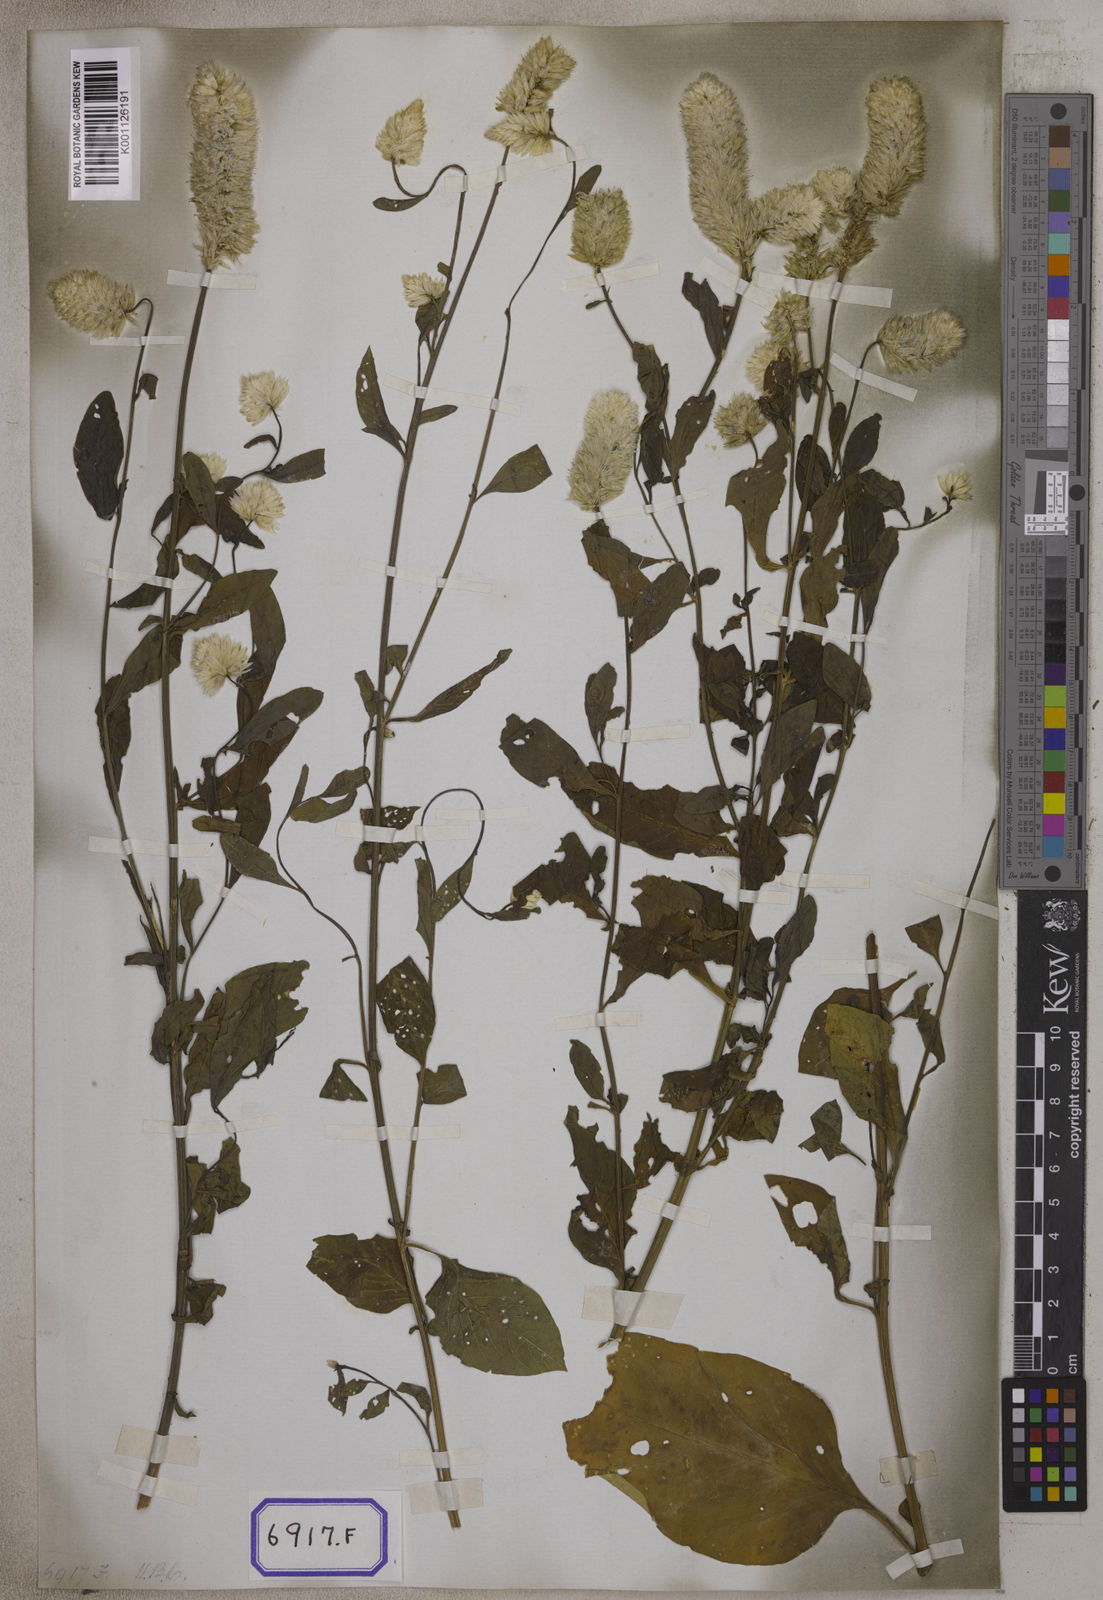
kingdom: Plantae
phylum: Tracheophyta
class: Magnoliopsida
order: Caryophyllales
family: Amaranthaceae
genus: Celosia
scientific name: Celosia argentea
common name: Feather cockscomb
